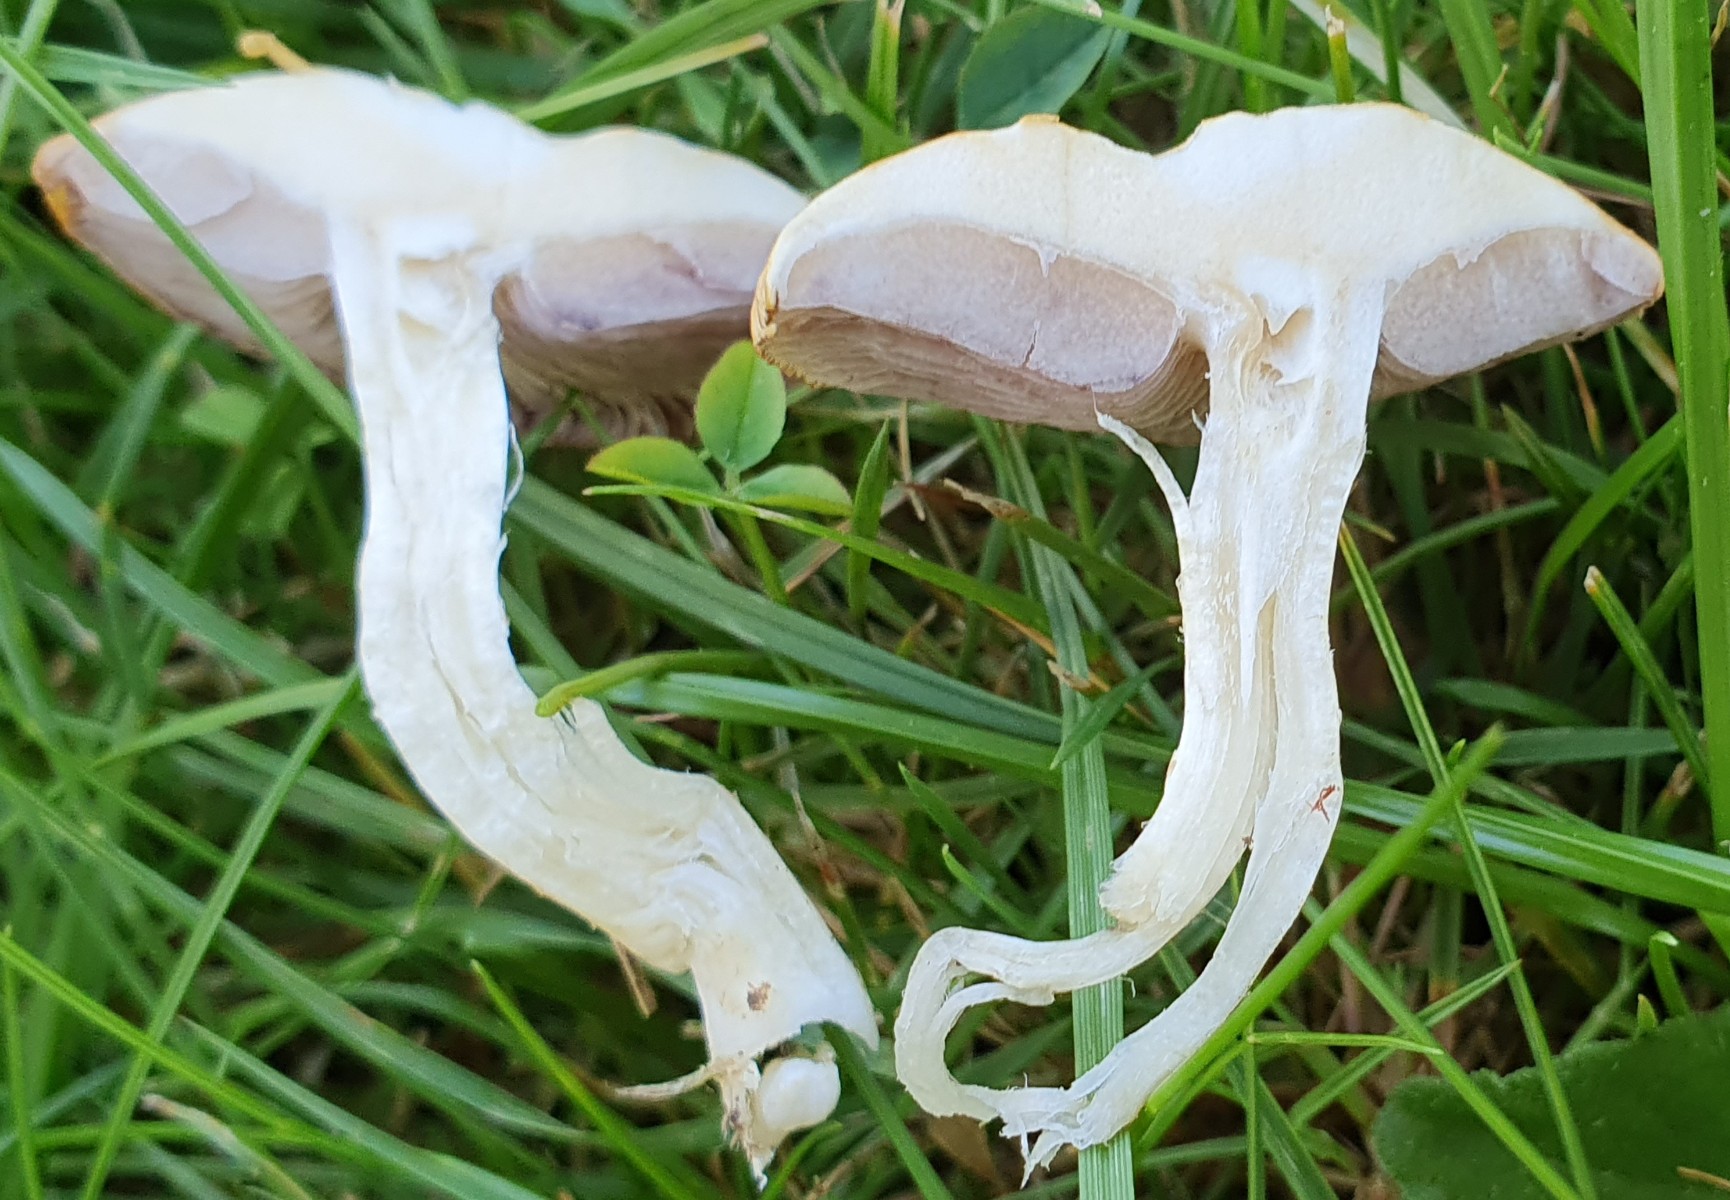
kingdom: Fungi
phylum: Basidiomycota
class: Agaricomycetes
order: Agaricales
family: Hymenogastraceae
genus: Psilocybe
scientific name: Psilocybe coronilla
